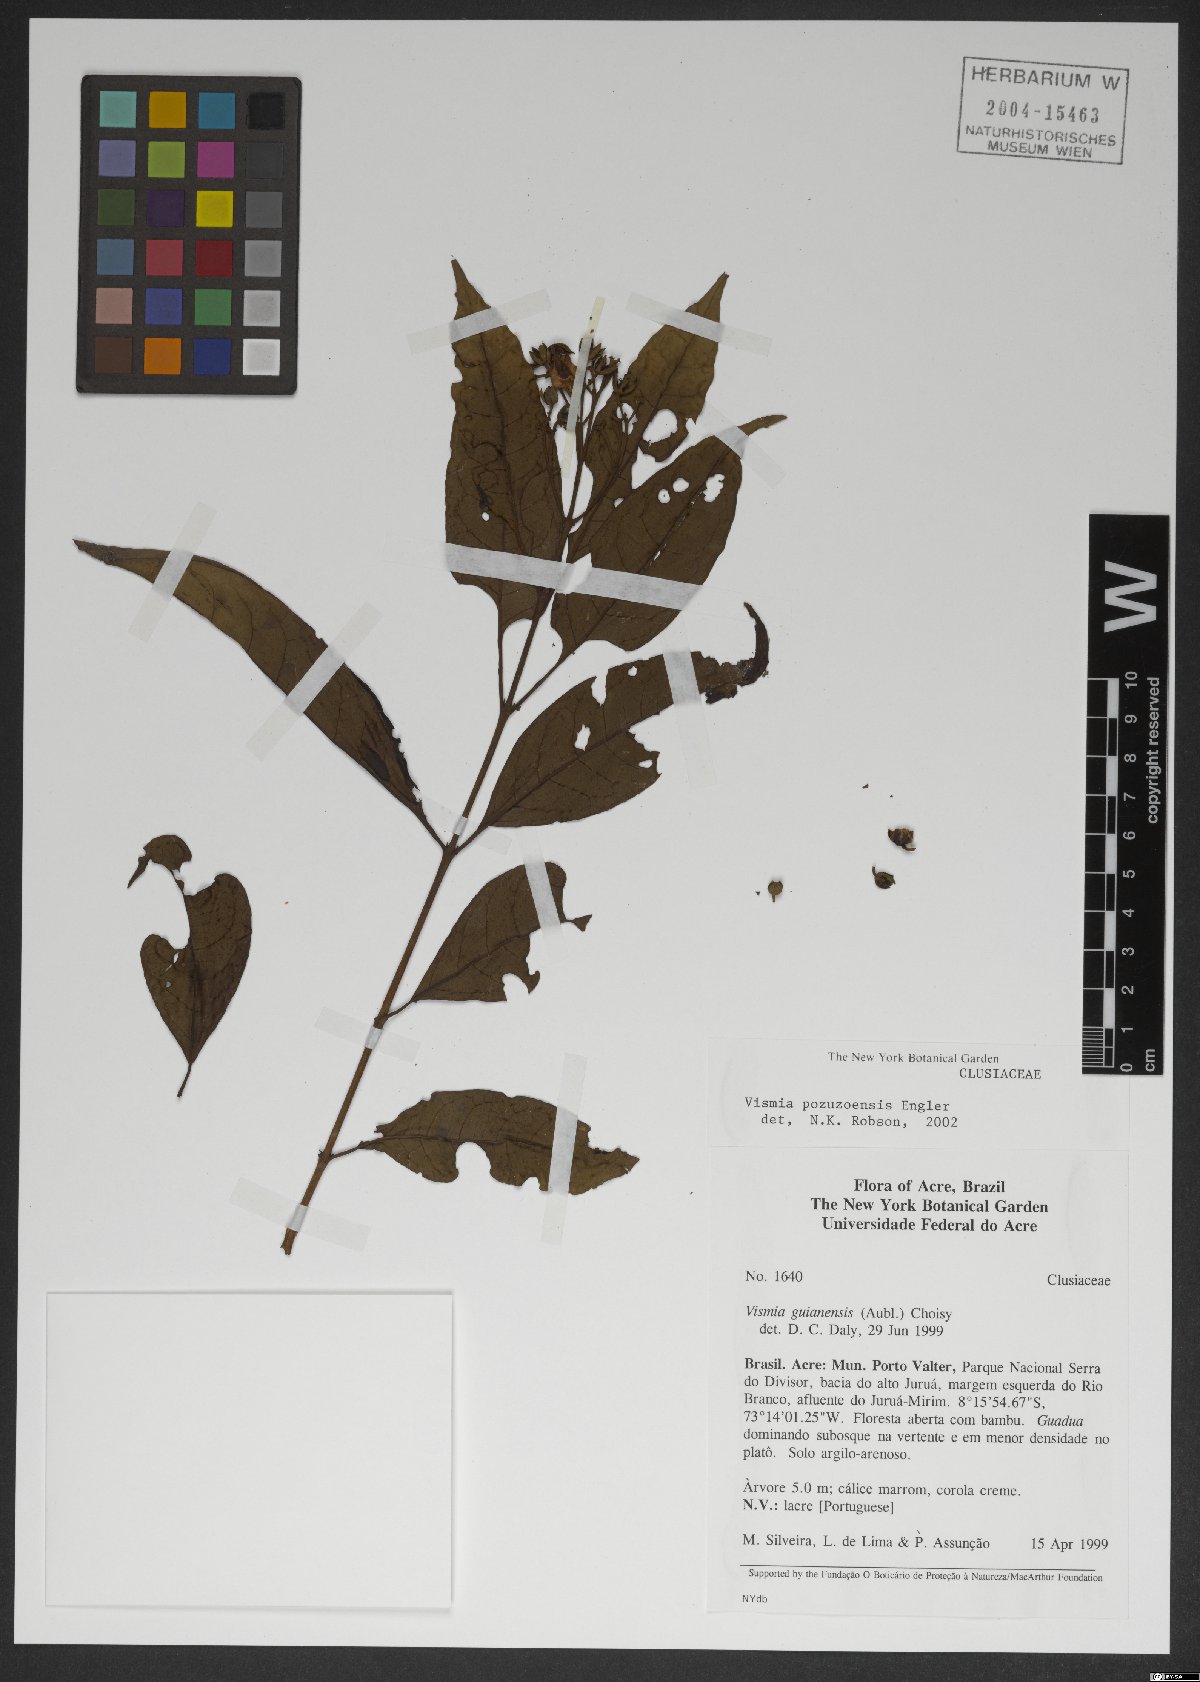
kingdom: Plantae
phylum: Tracheophyta
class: Magnoliopsida
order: Malpighiales
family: Hypericaceae
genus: Vismia
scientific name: Vismia pozuzoensis
